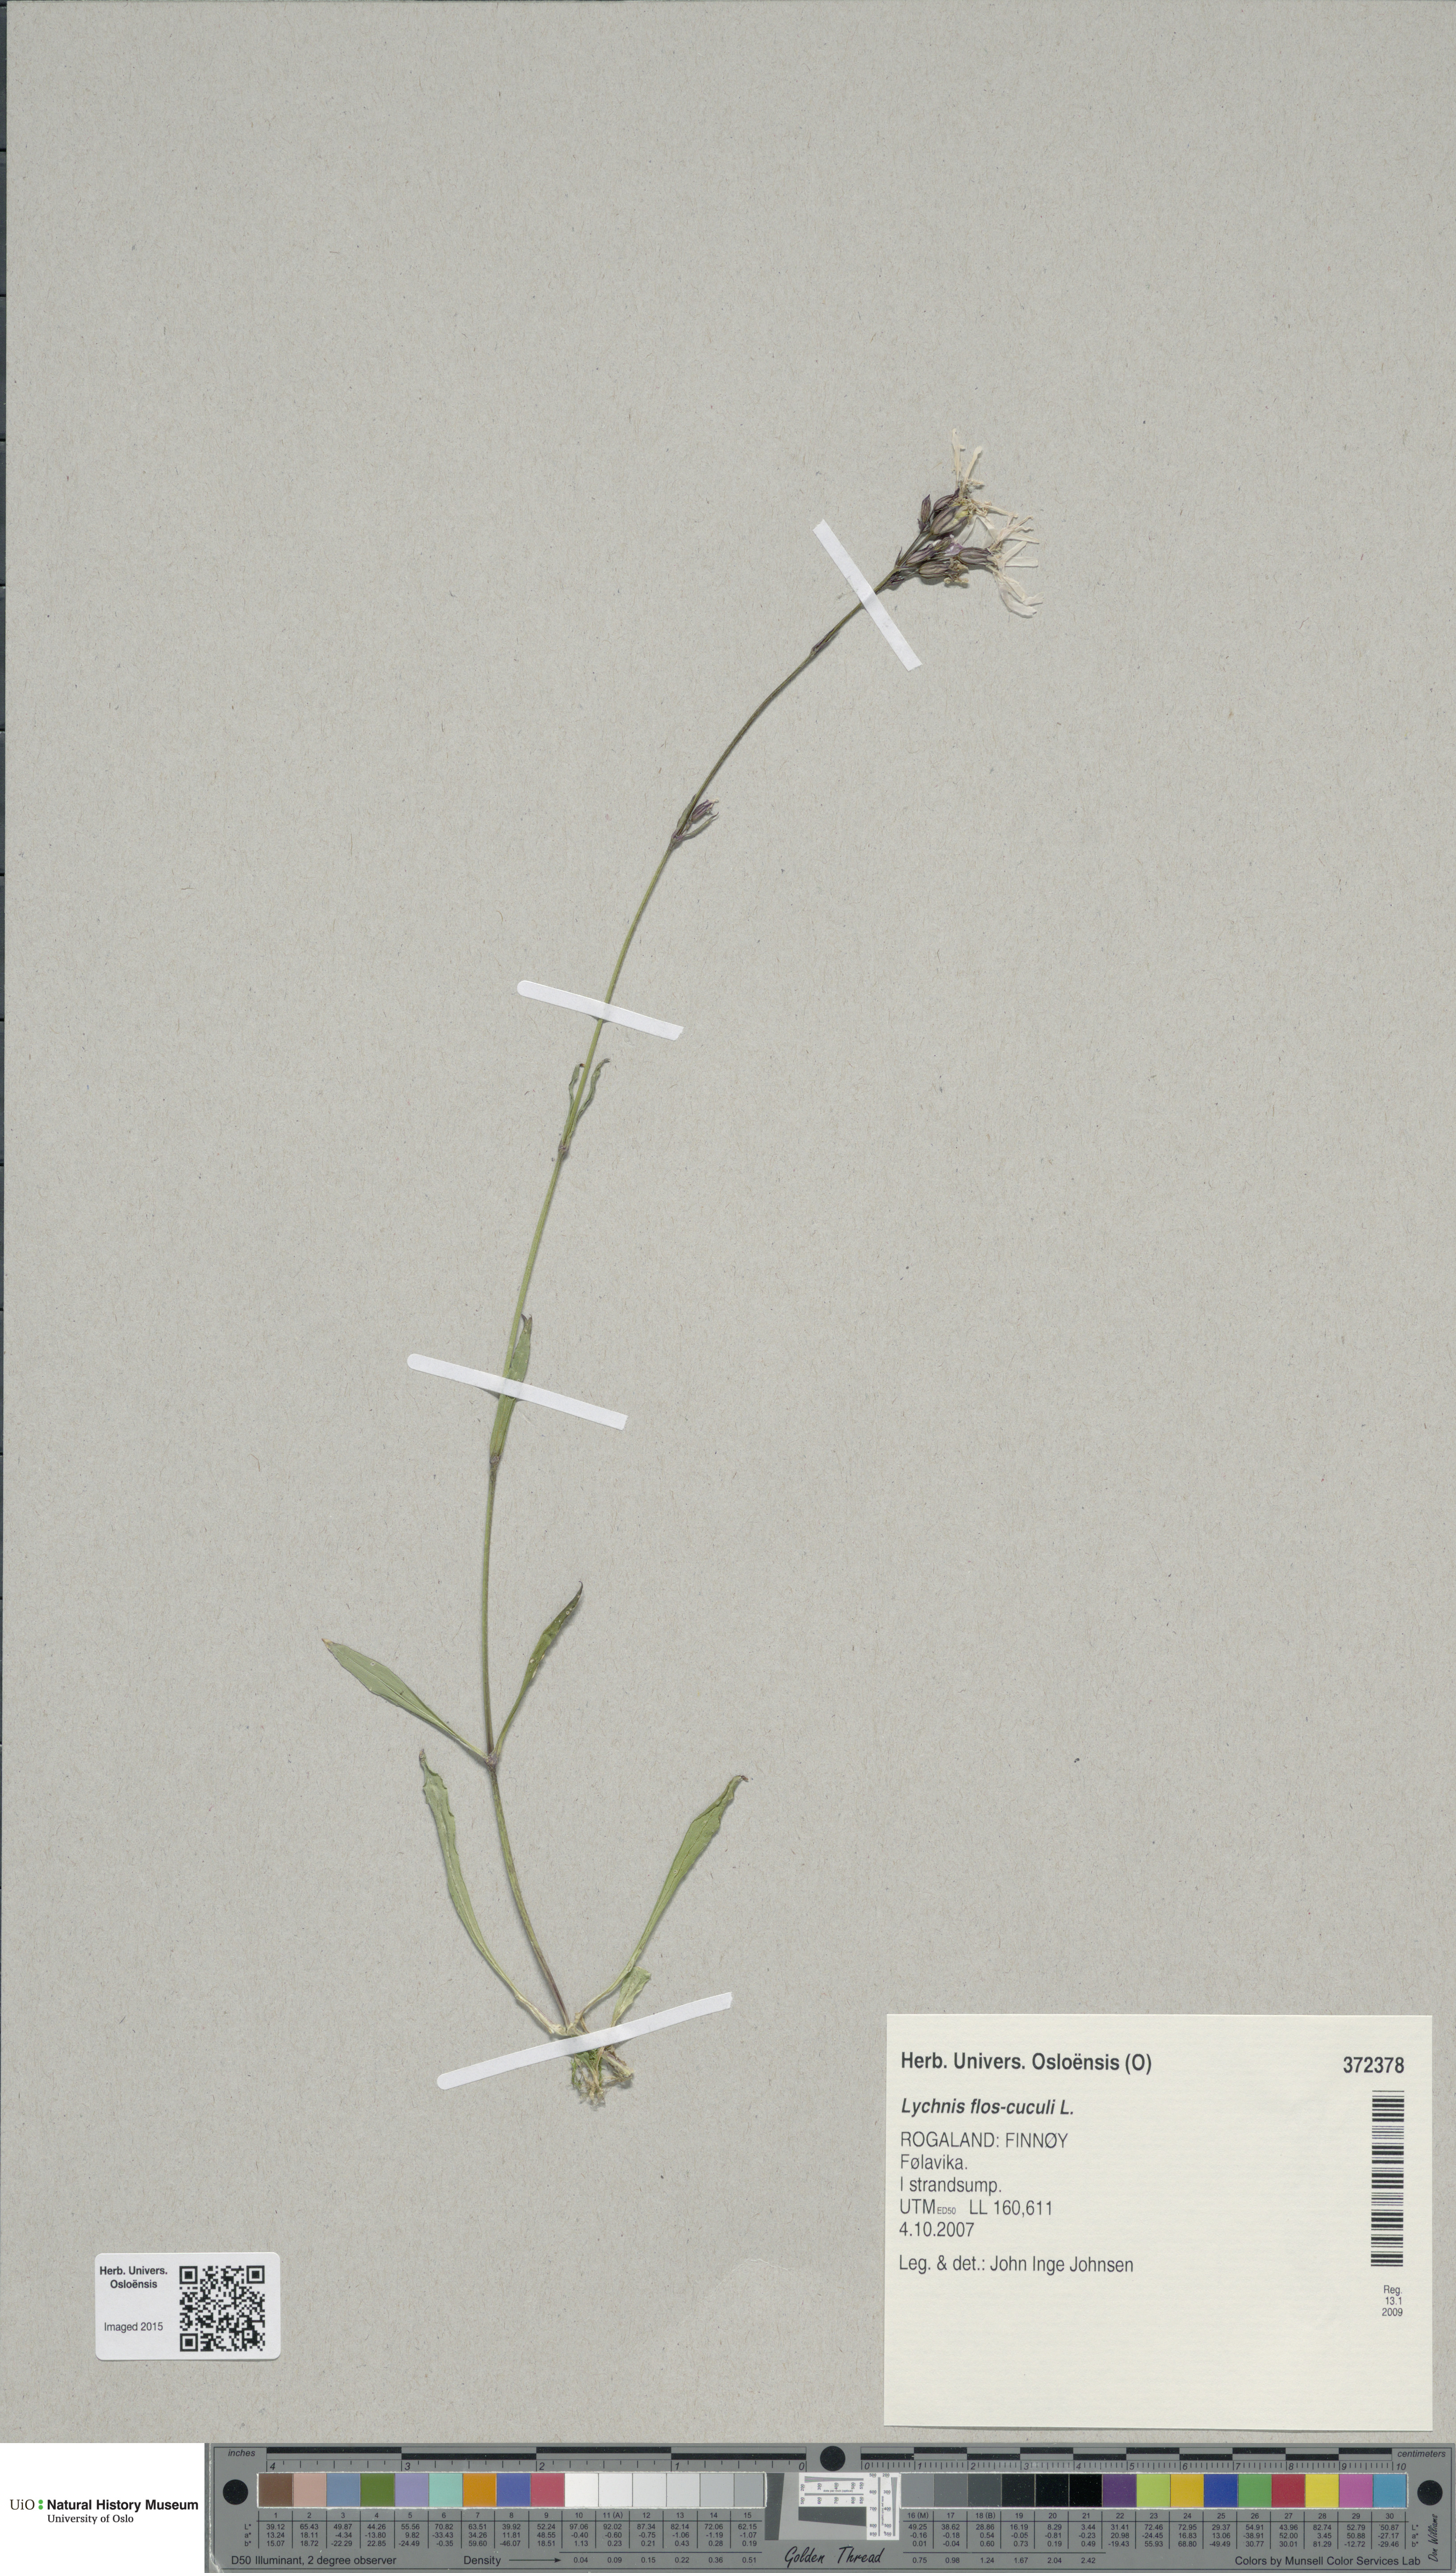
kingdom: Plantae
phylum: Tracheophyta
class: Magnoliopsida
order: Caryophyllales
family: Caryophyllaceae
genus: Silene
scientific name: Silene flos-cuculi
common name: Ragged-robin
